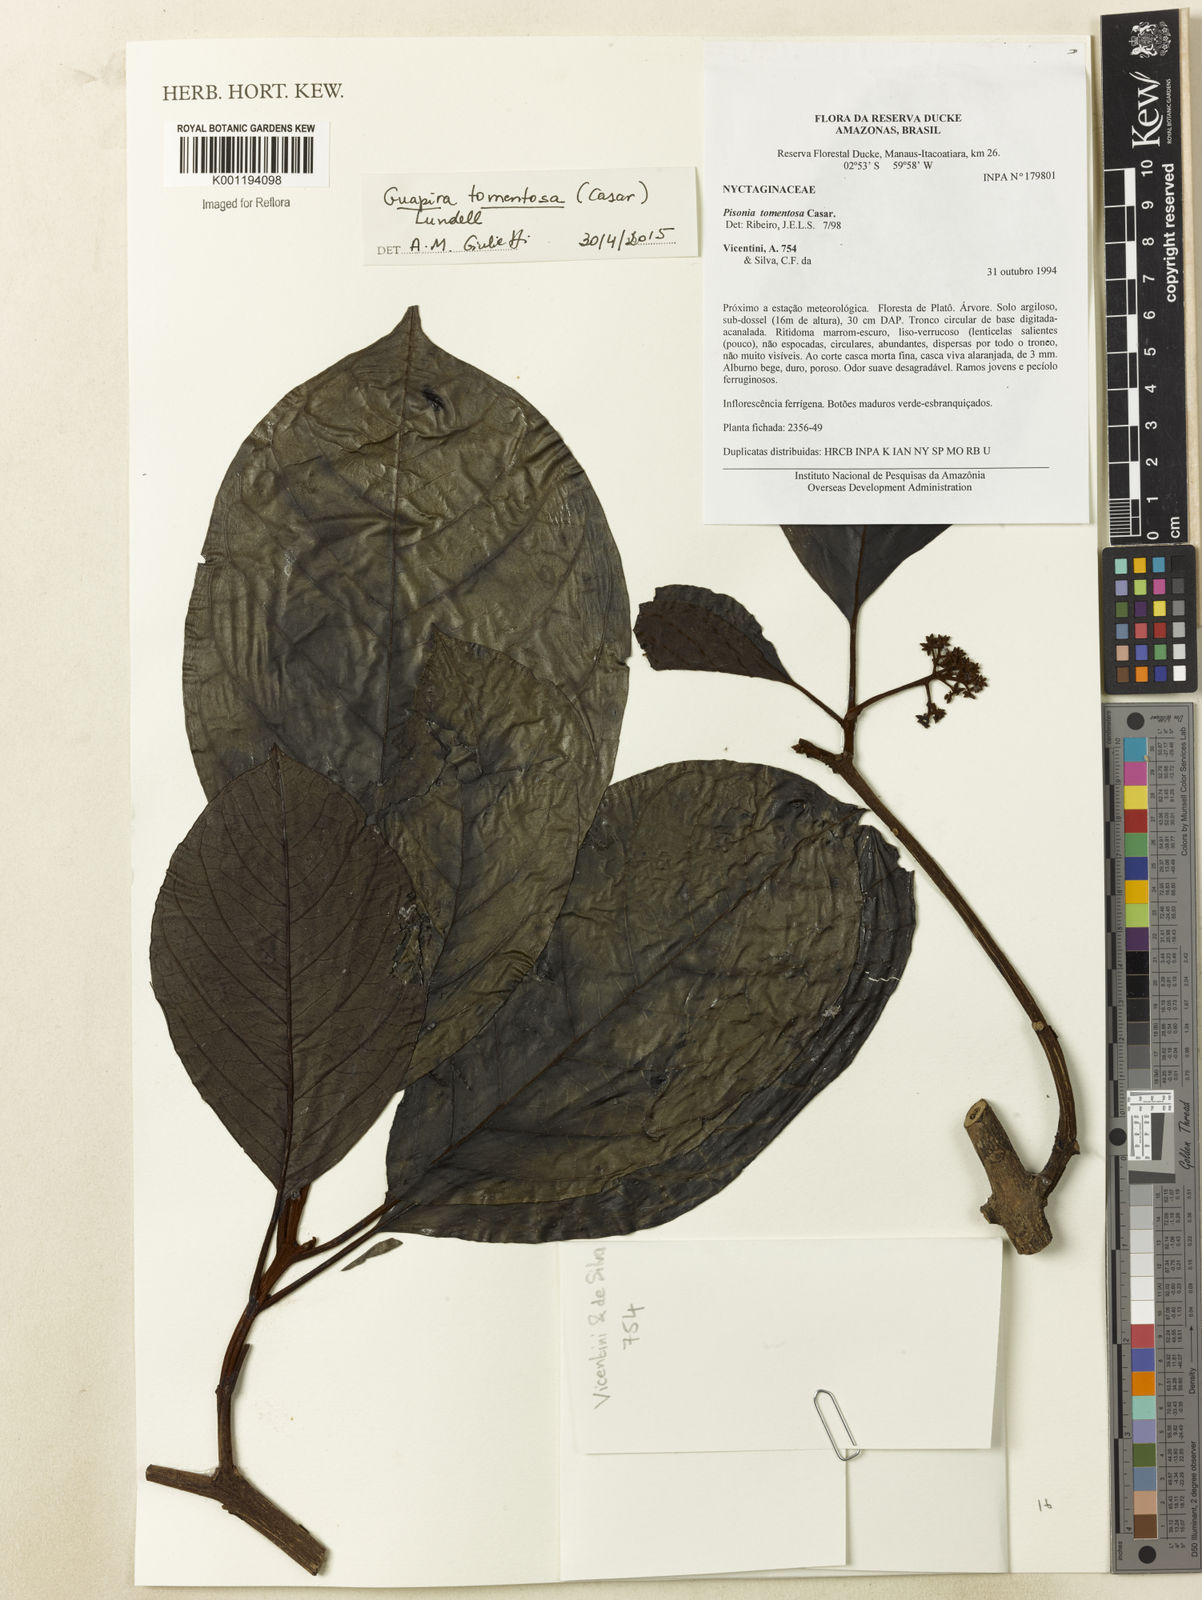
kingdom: Plantae
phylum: Tracheophyta
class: Magnoliopsida
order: Caryophyllales
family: Nyctaginaceae
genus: Guapira
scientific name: Guapira tomentosa
